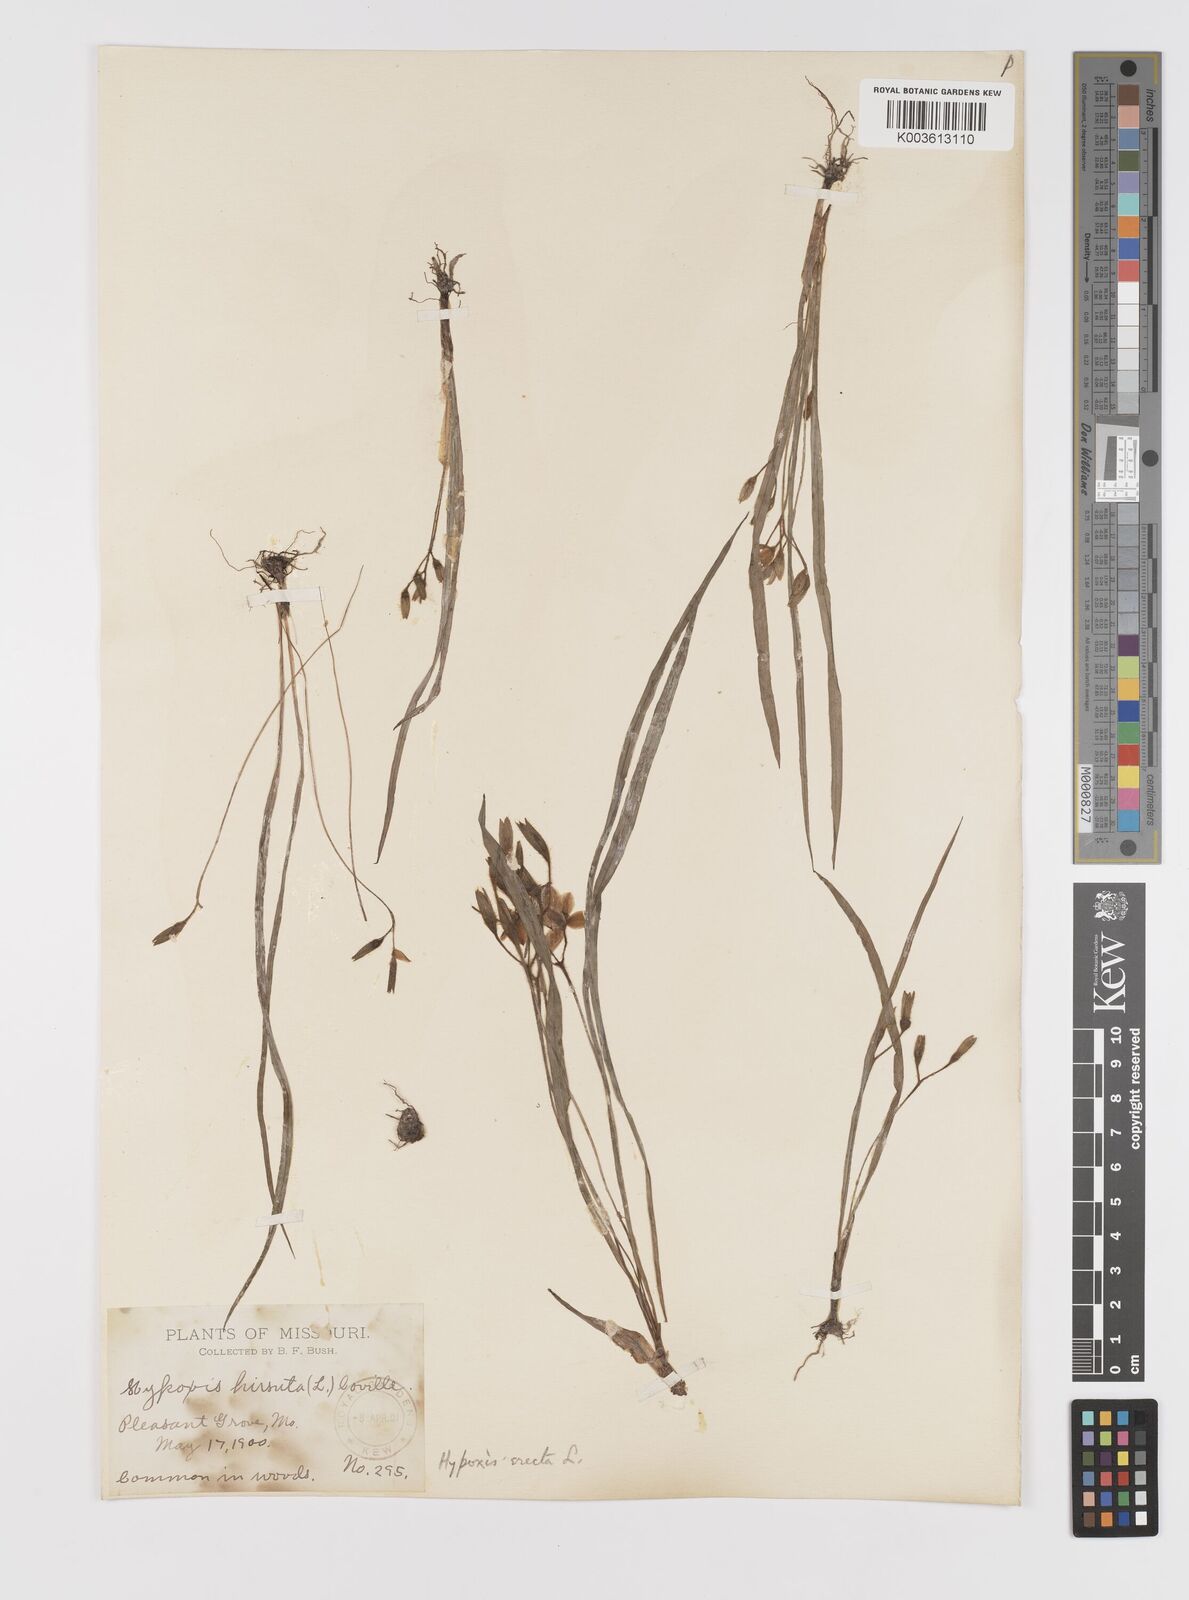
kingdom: Plantae
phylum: Tracheophyta
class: Liliopsida
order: Asparagales
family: Hypoxidaceae
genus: Hypoxis
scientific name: Hypoxis hirsuta
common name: Common goldstar
